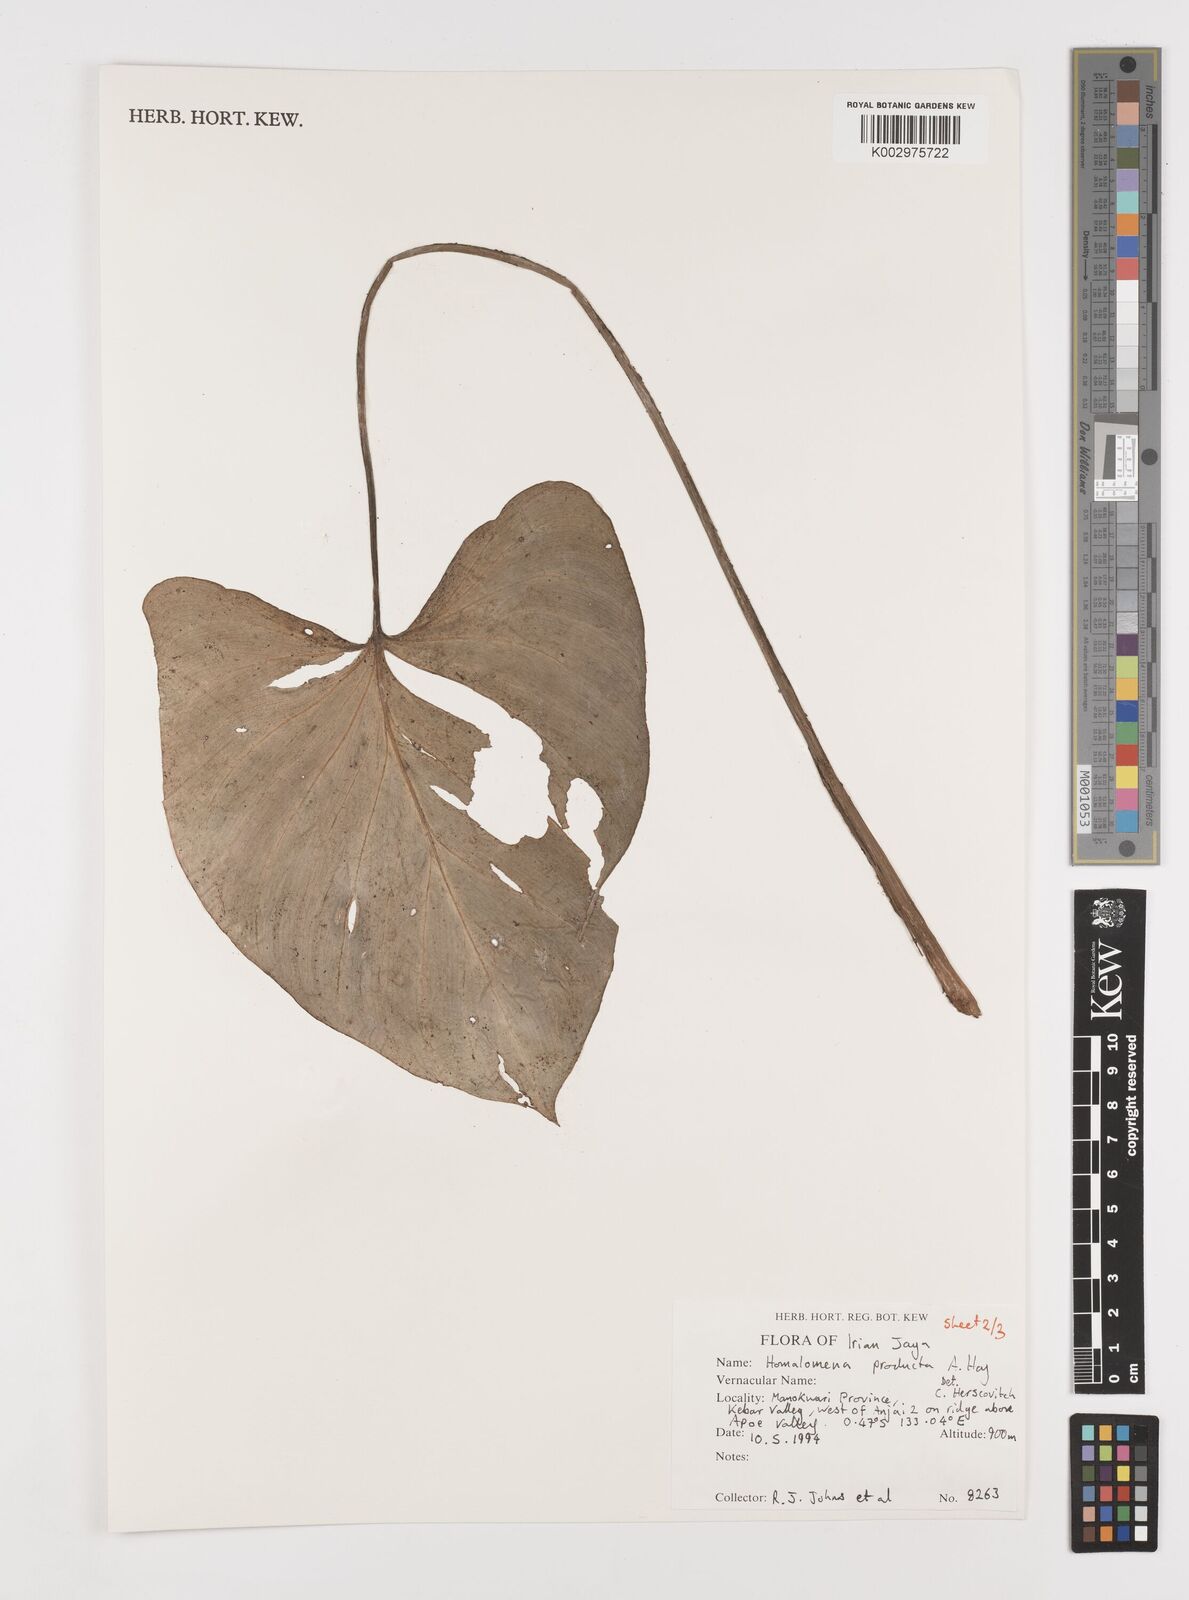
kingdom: Plantae
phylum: Tracheophyta
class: Liliopsida
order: Alismatales
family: Araceae
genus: Homalomena
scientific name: Homalomena producta
